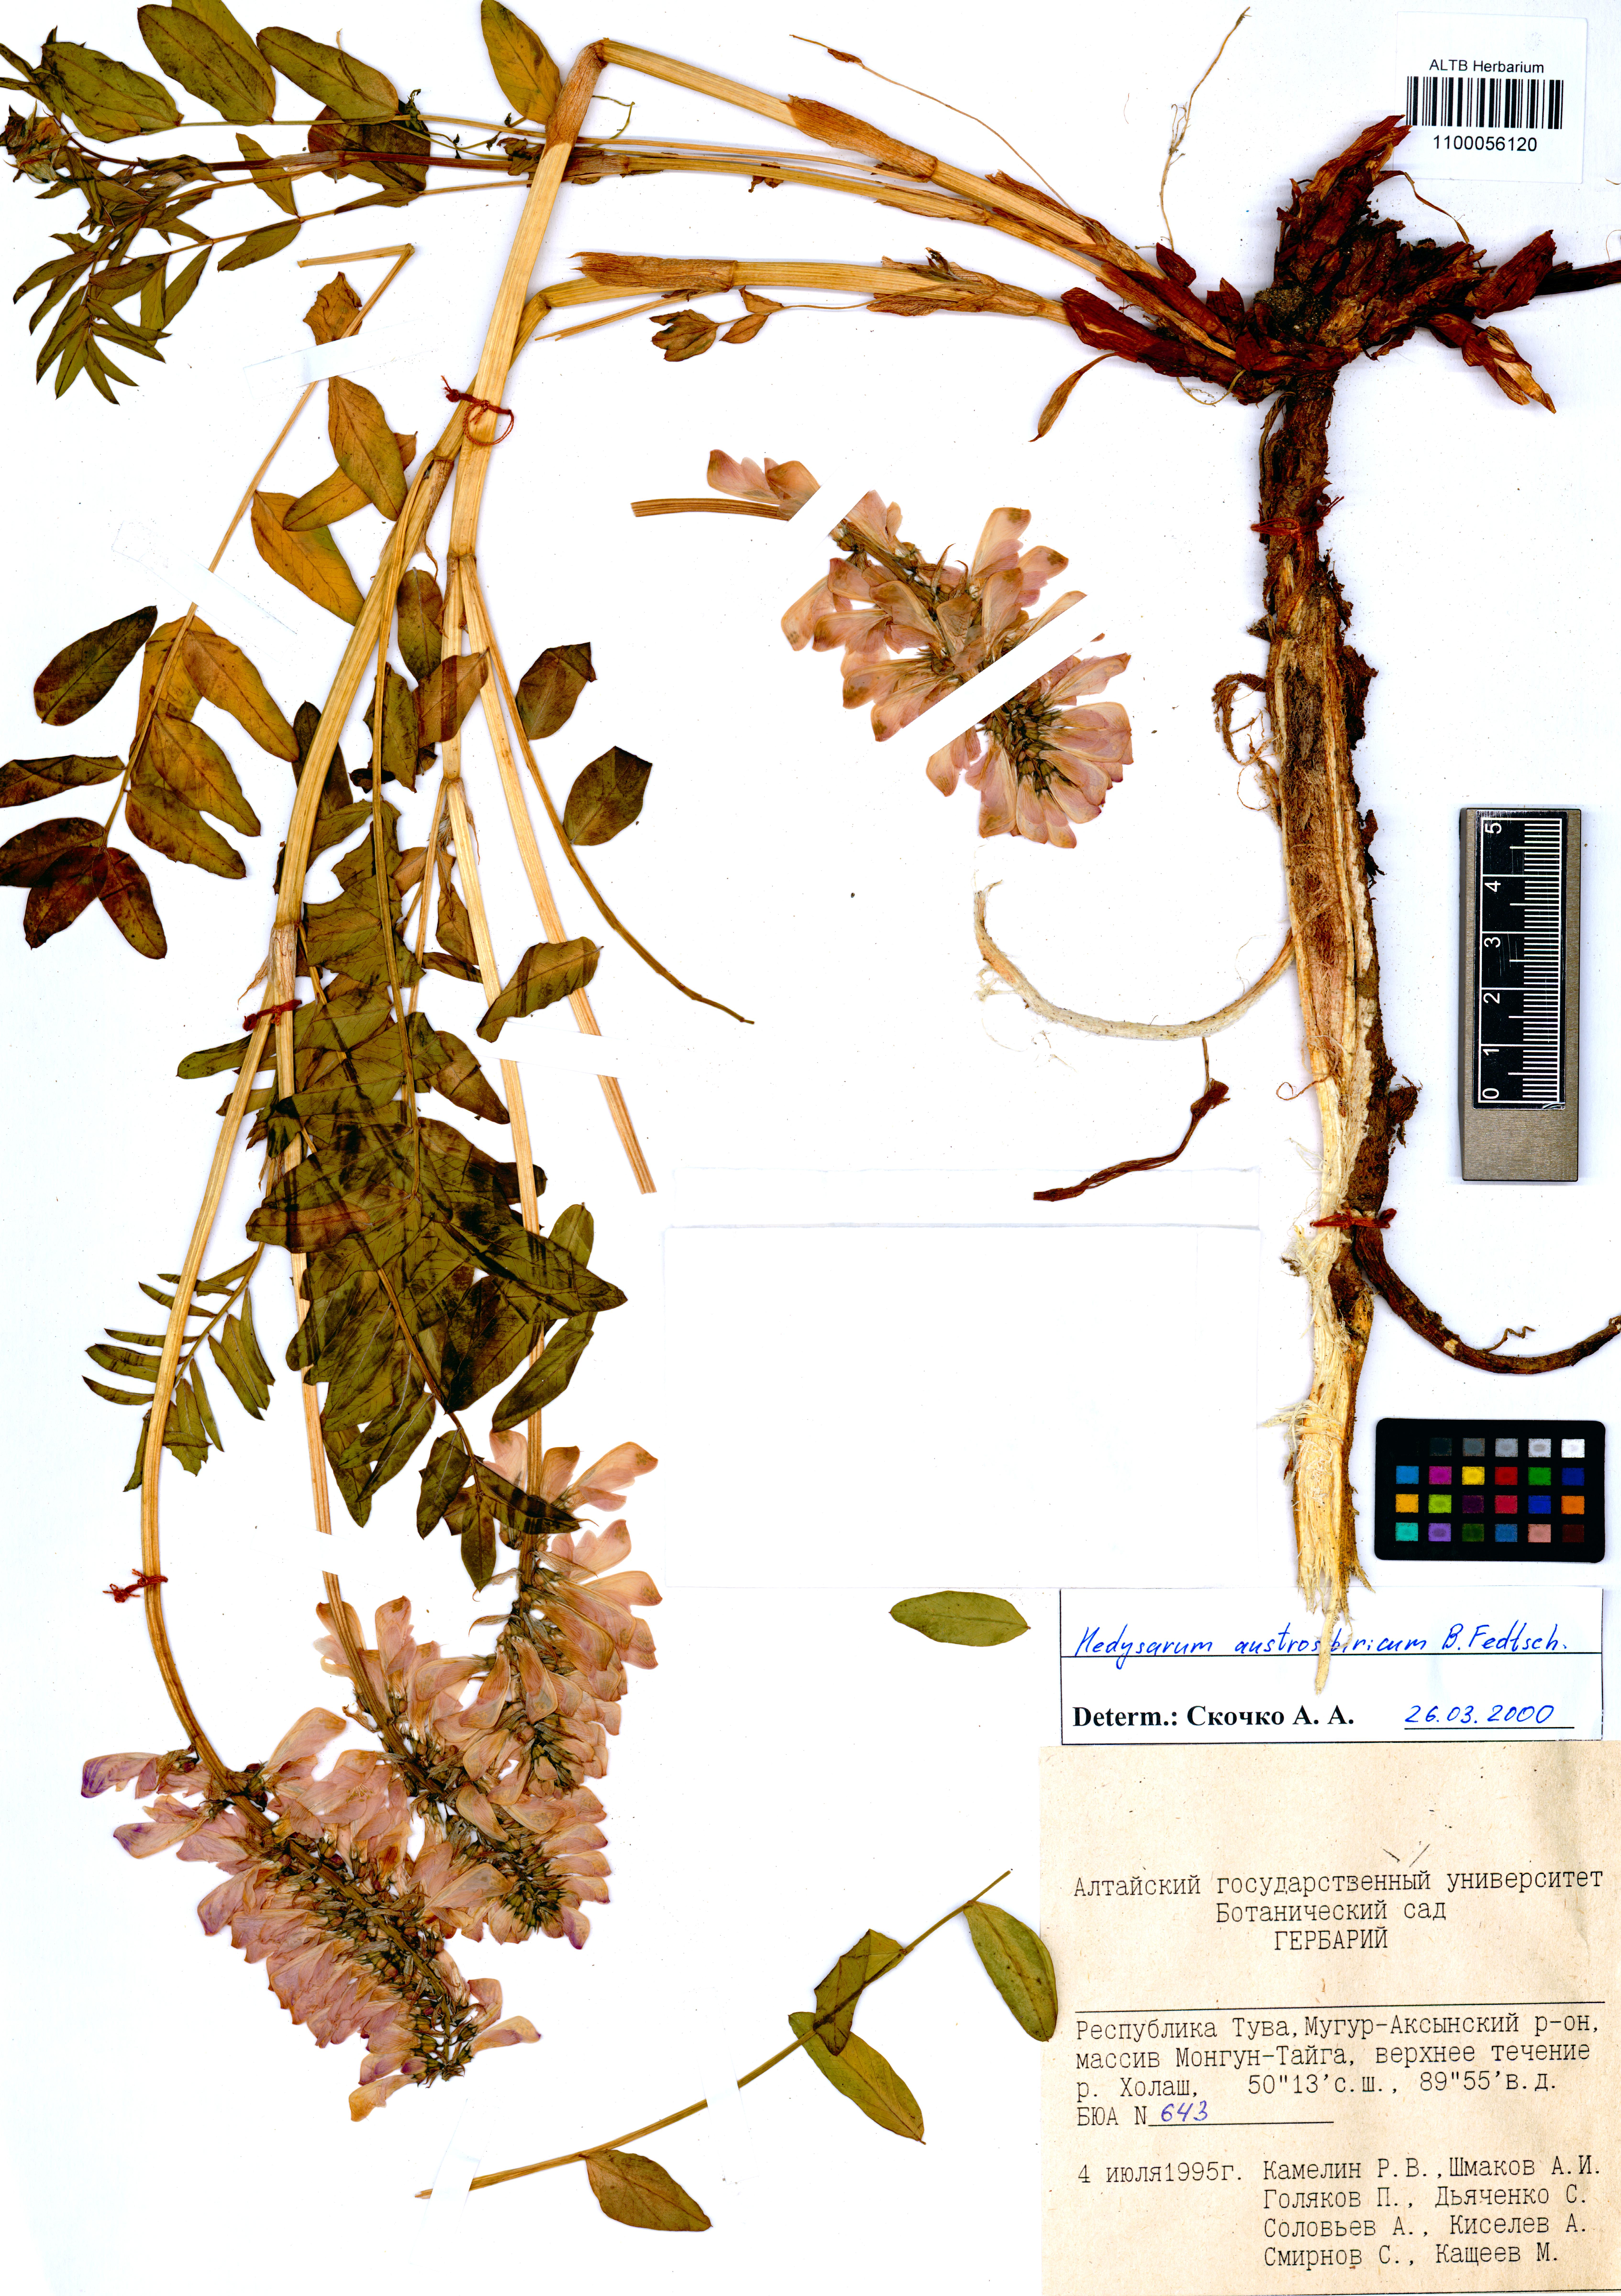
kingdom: Plantae
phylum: Tracheophyta
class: Magnoliopsida
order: Fabales
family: Fabaceae
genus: Hedysarum
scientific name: Hedysarum neglectum
